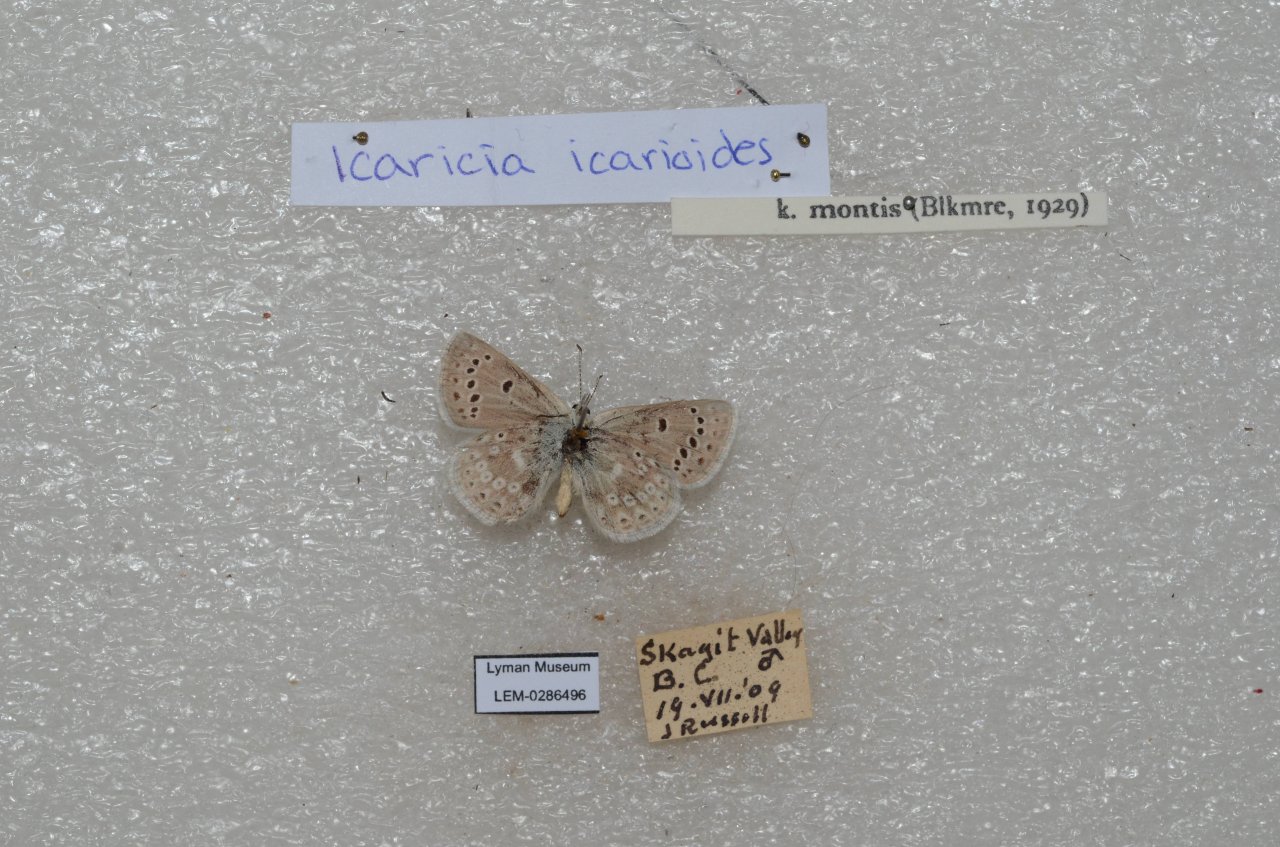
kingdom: Animalia
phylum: Arthropoda
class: Insecta
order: Lepidoptera
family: Lycaenidae
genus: Icaricia
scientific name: Icaricia icarioides
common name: Boisduval's Blue
